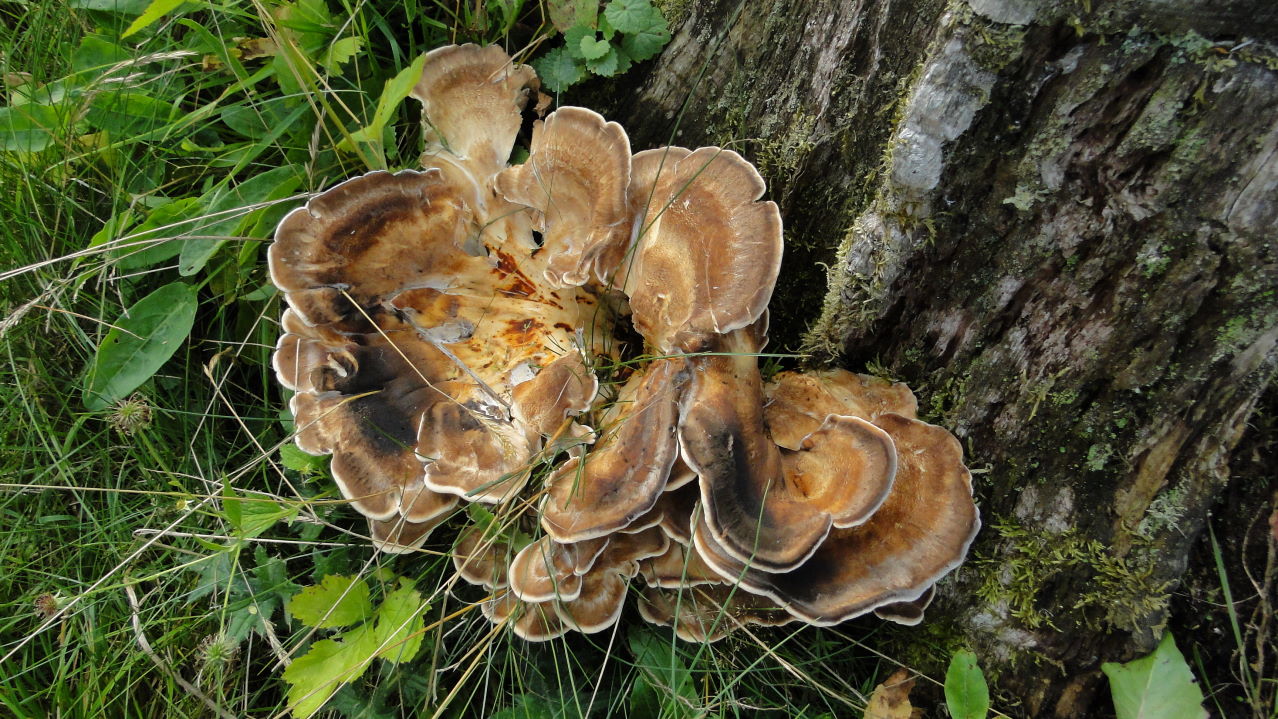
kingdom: Fungi
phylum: Basidiomycota
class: Agaricomycetes
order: Polyporales
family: Meripilaceae
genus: Meripilus
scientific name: Meripilus giganteus
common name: kæmpeporesvamp
